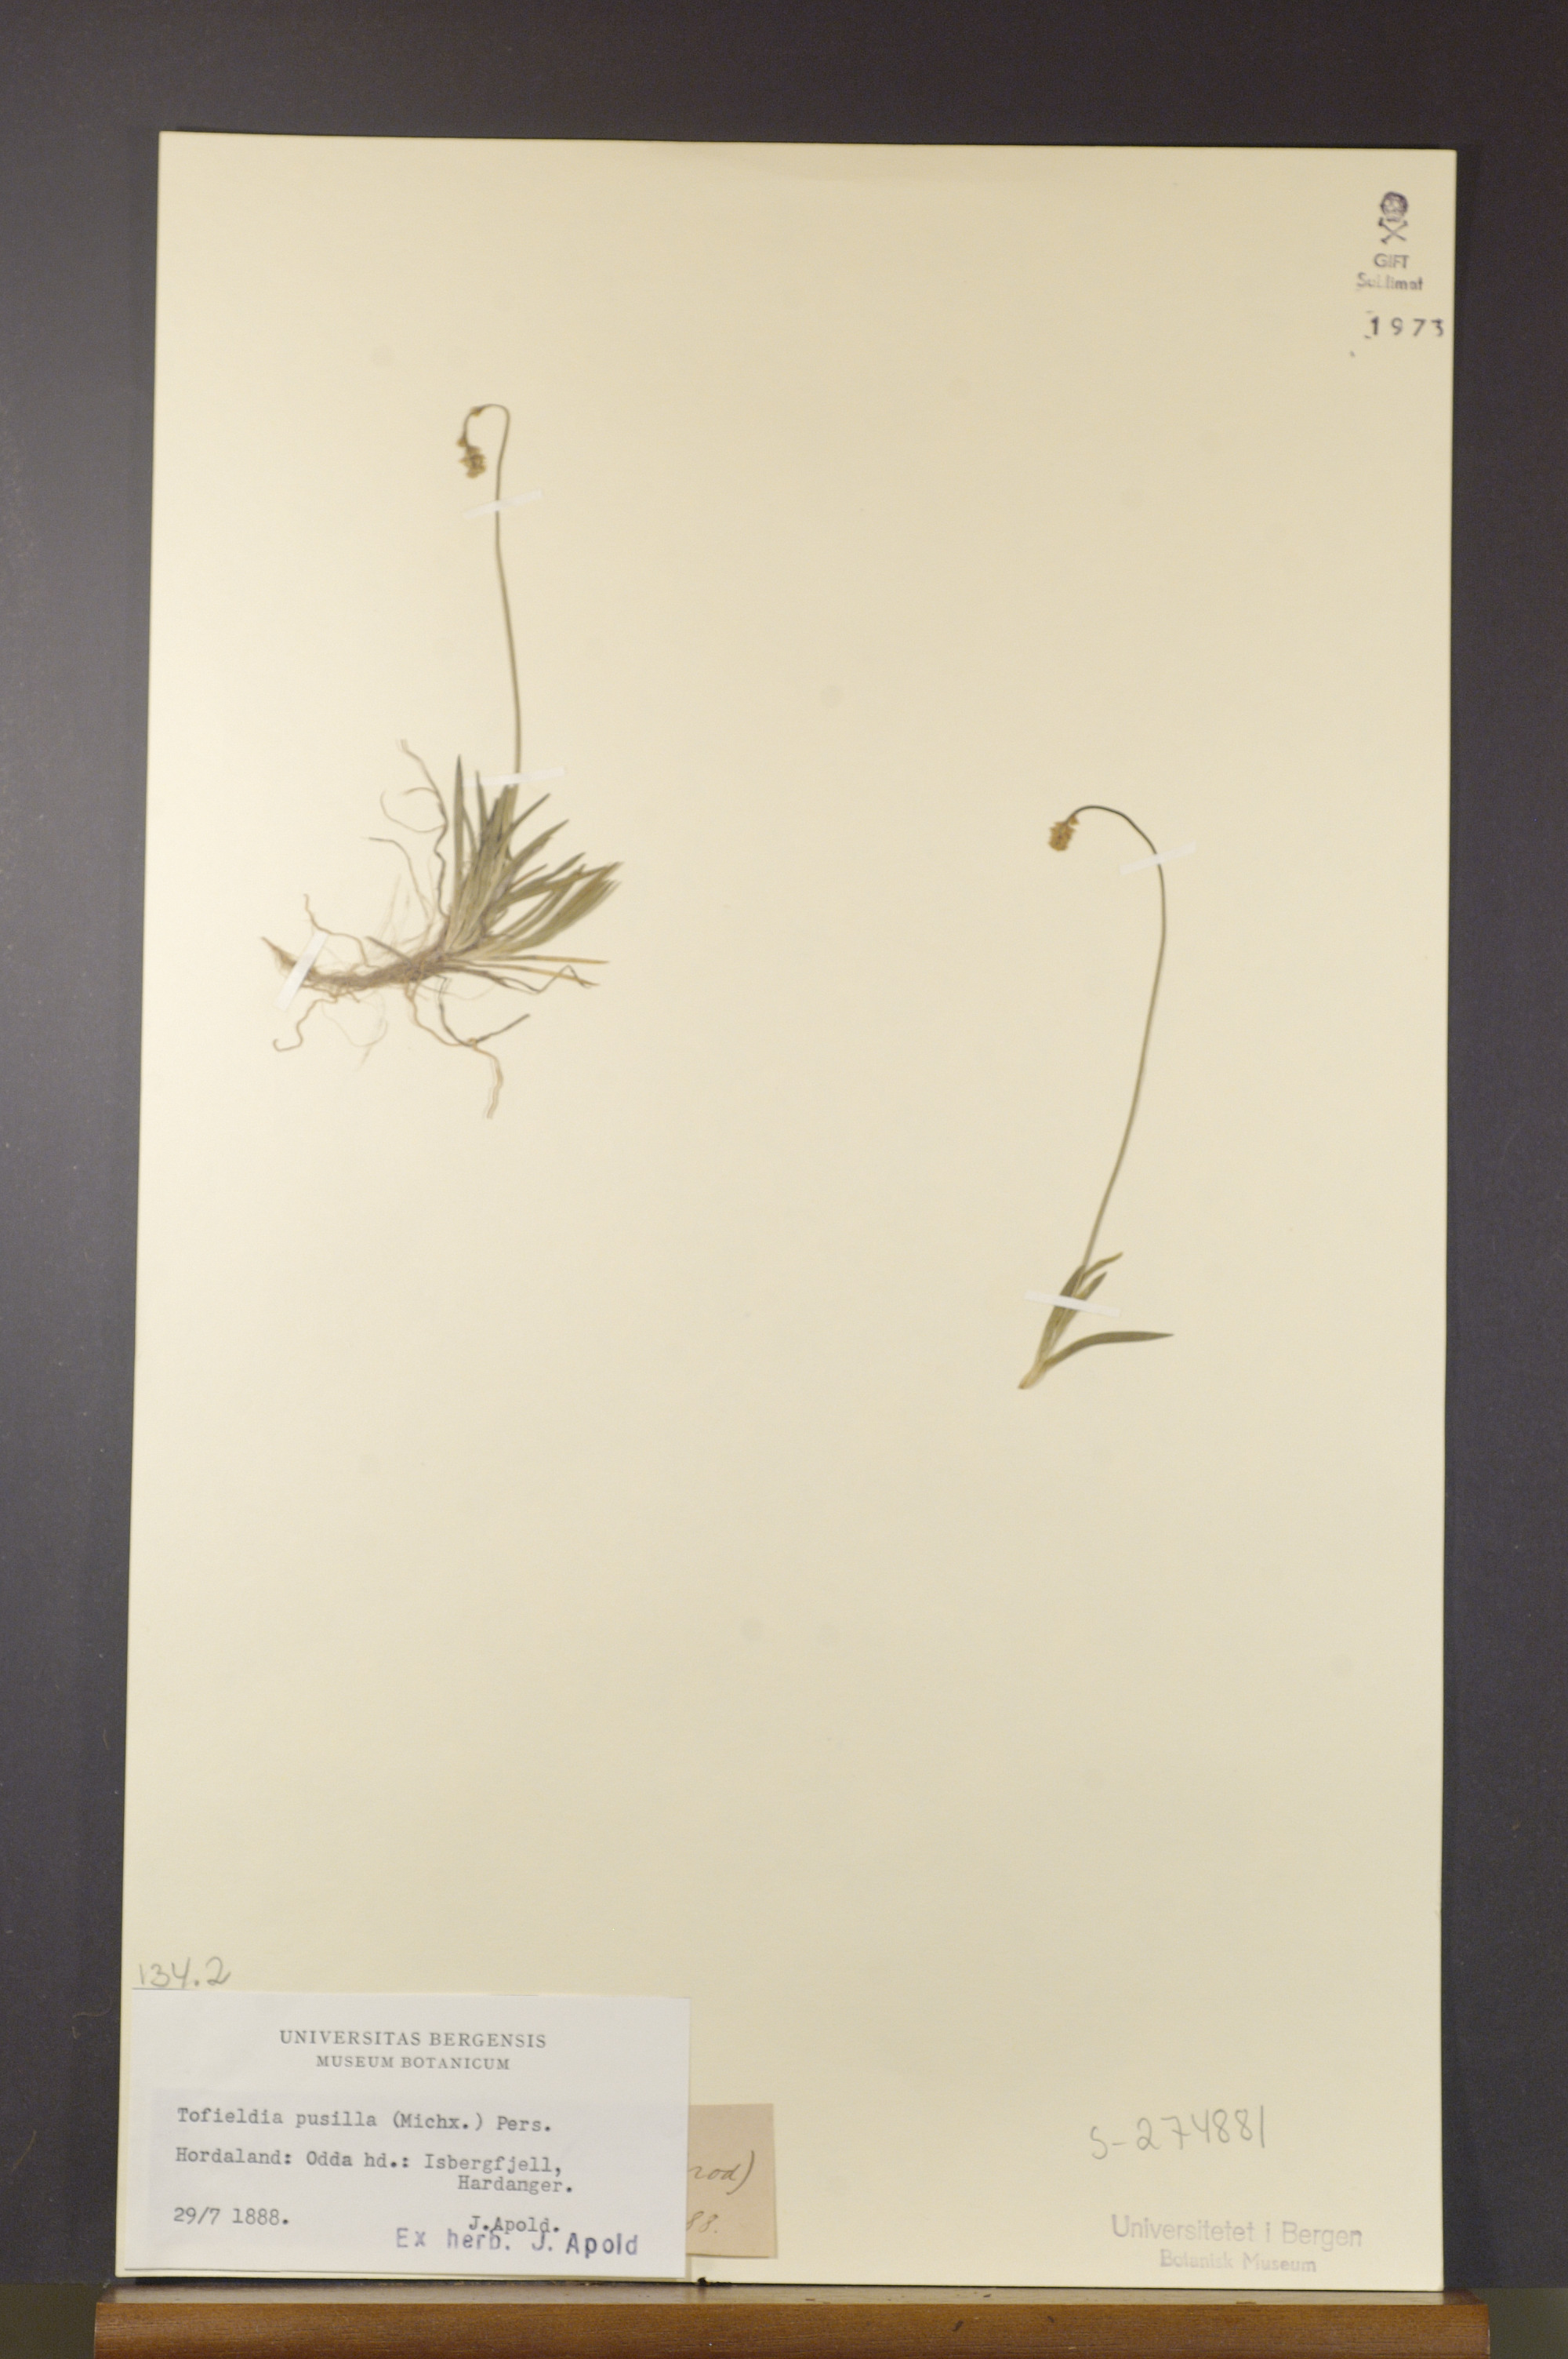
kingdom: Plantae
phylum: Tracheophyta
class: Liliopsida
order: Alismatales
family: Tofieldiaceae
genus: Tofieldia
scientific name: Tofieldia pusilla
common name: Scottish false asphodel
